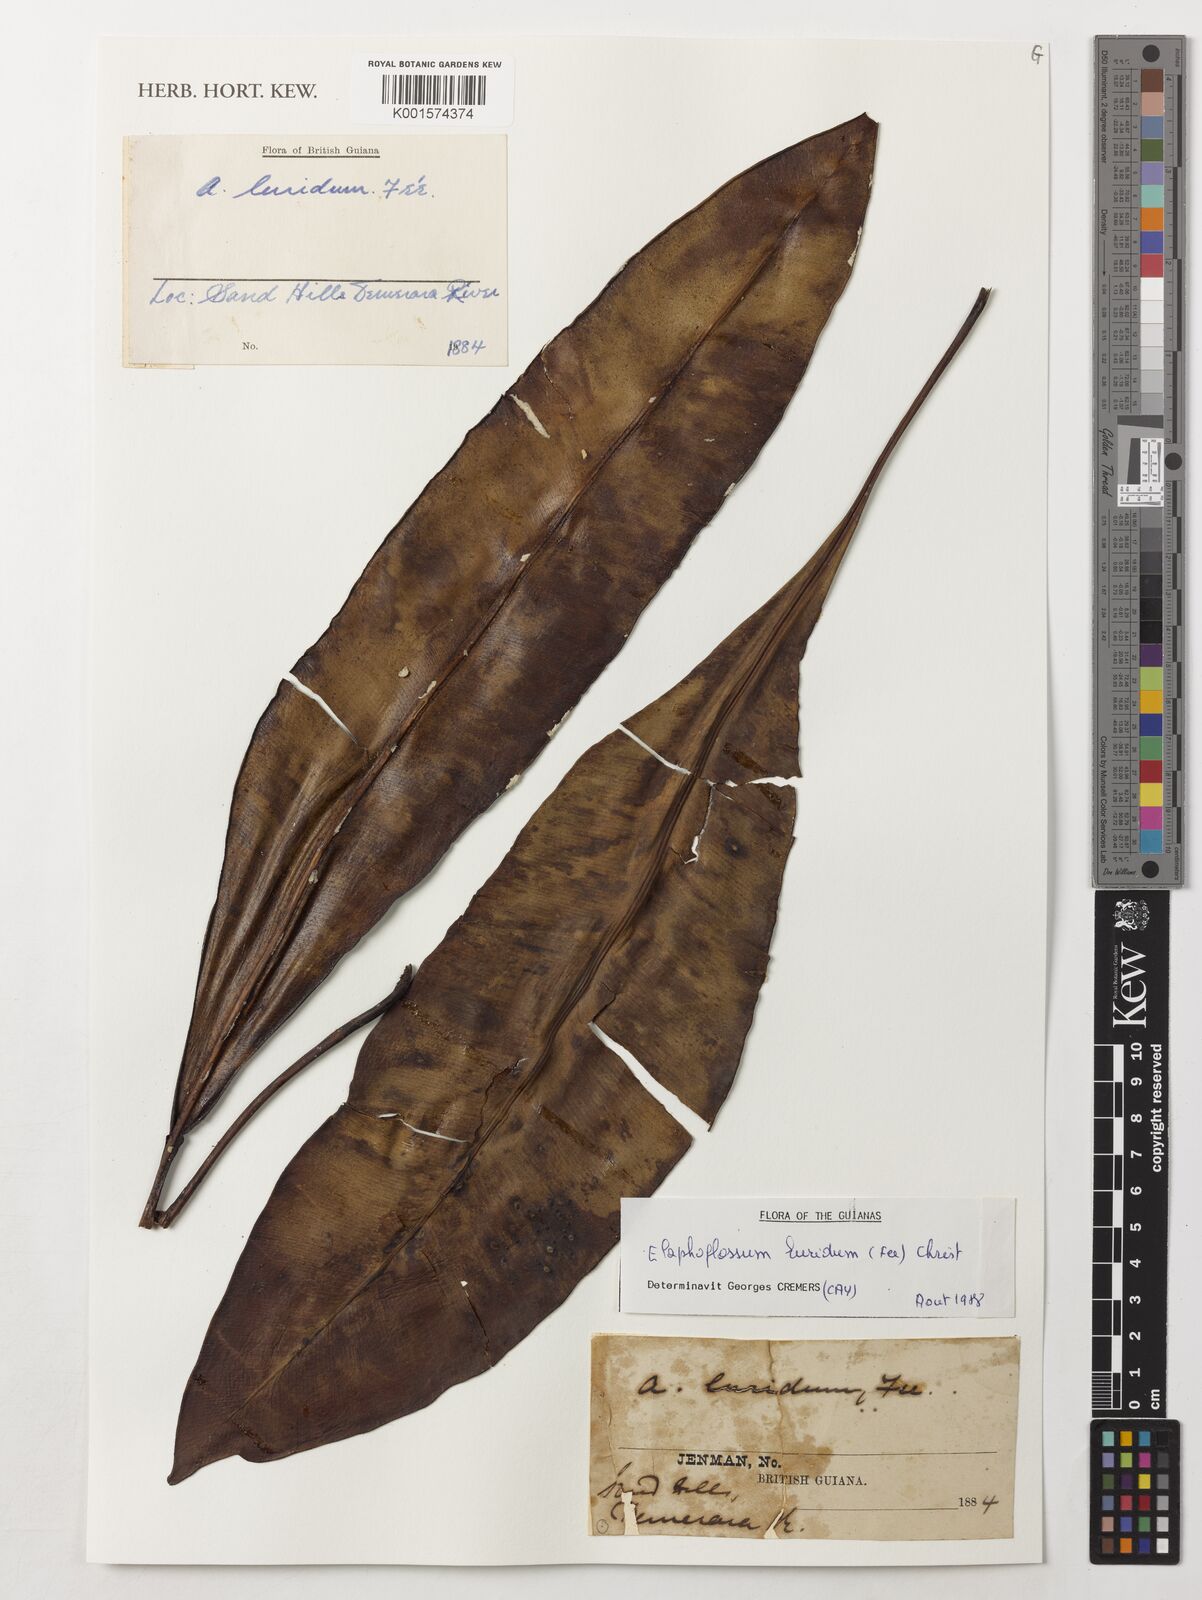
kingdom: Plantae
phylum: Tracheophyta
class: Polypodiopsida
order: Polypodiales
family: Dryopteridaceae
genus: Elaphoglossum
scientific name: Elaphoglossum luridum
